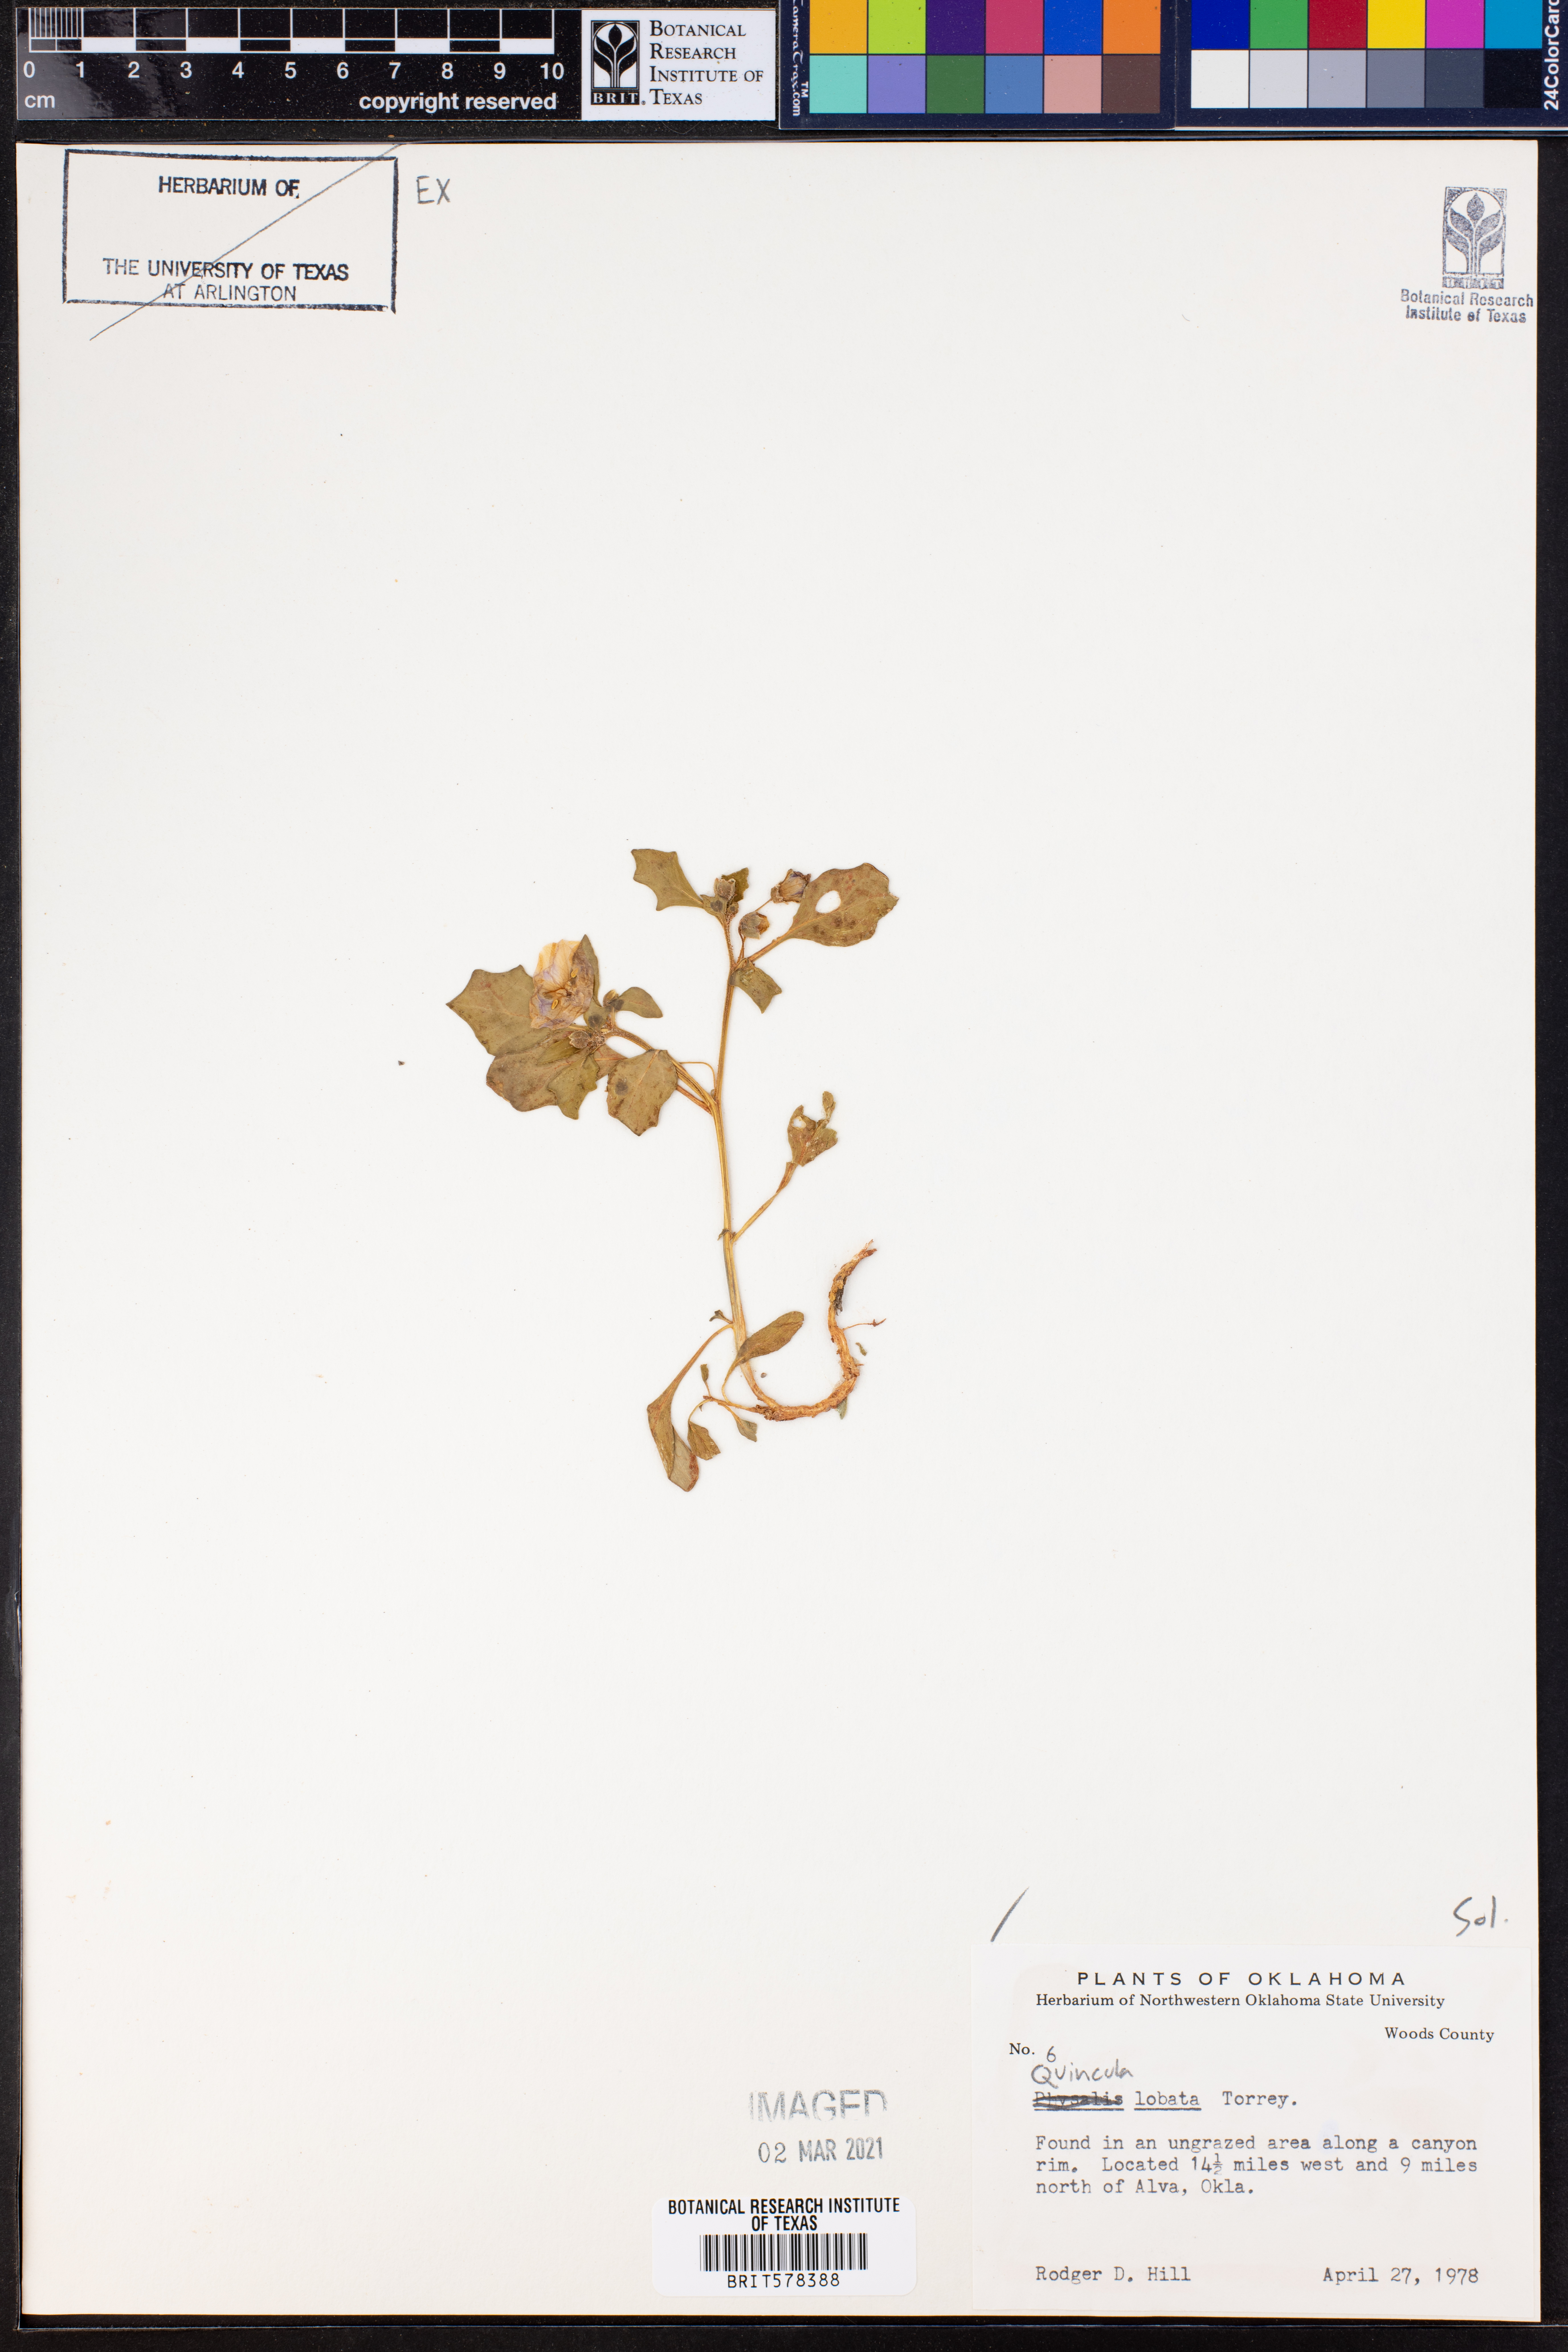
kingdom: Plantae
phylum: Tracheophyta
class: Magnoliopsida
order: Solanales
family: Solanaceae
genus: Quincula
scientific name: Quincula lobata
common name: Purple-ground-cherry
